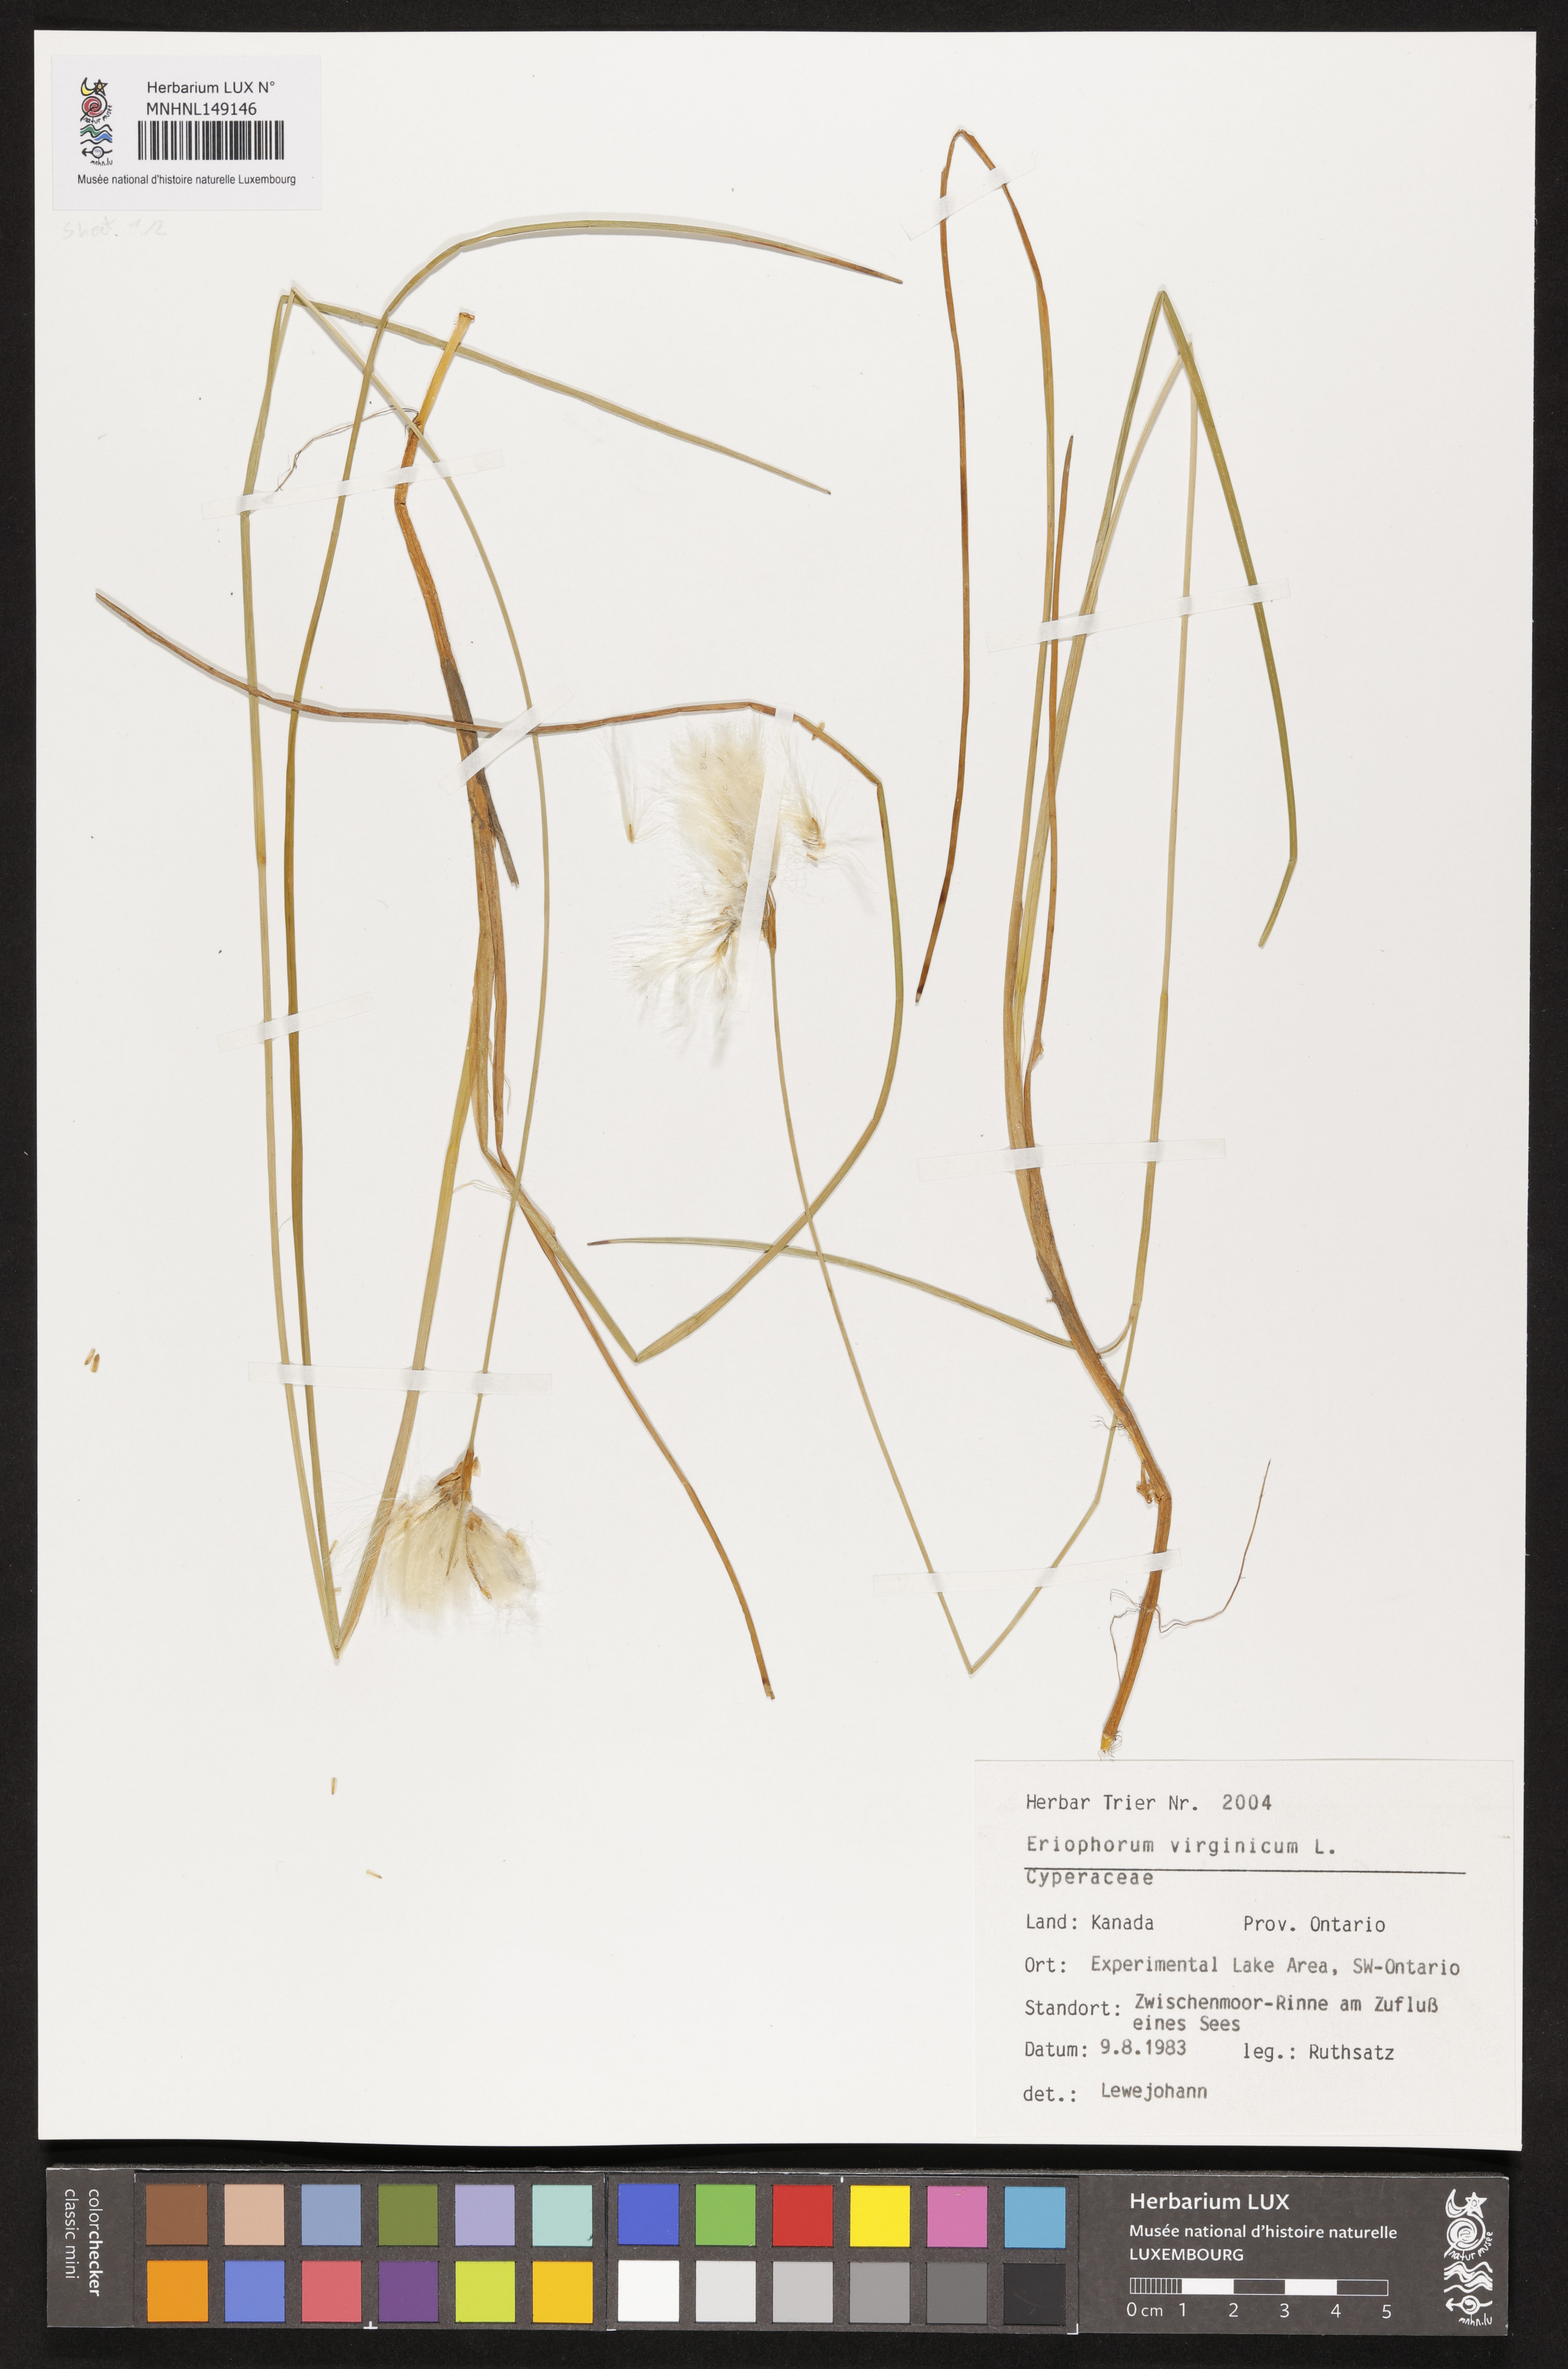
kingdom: Plantae
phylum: Tracheophyta
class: Liliopsida
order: Poales
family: Cyperaceae
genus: Eriophorum
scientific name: Eriophorum virginicum
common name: Tawny cottongrass
